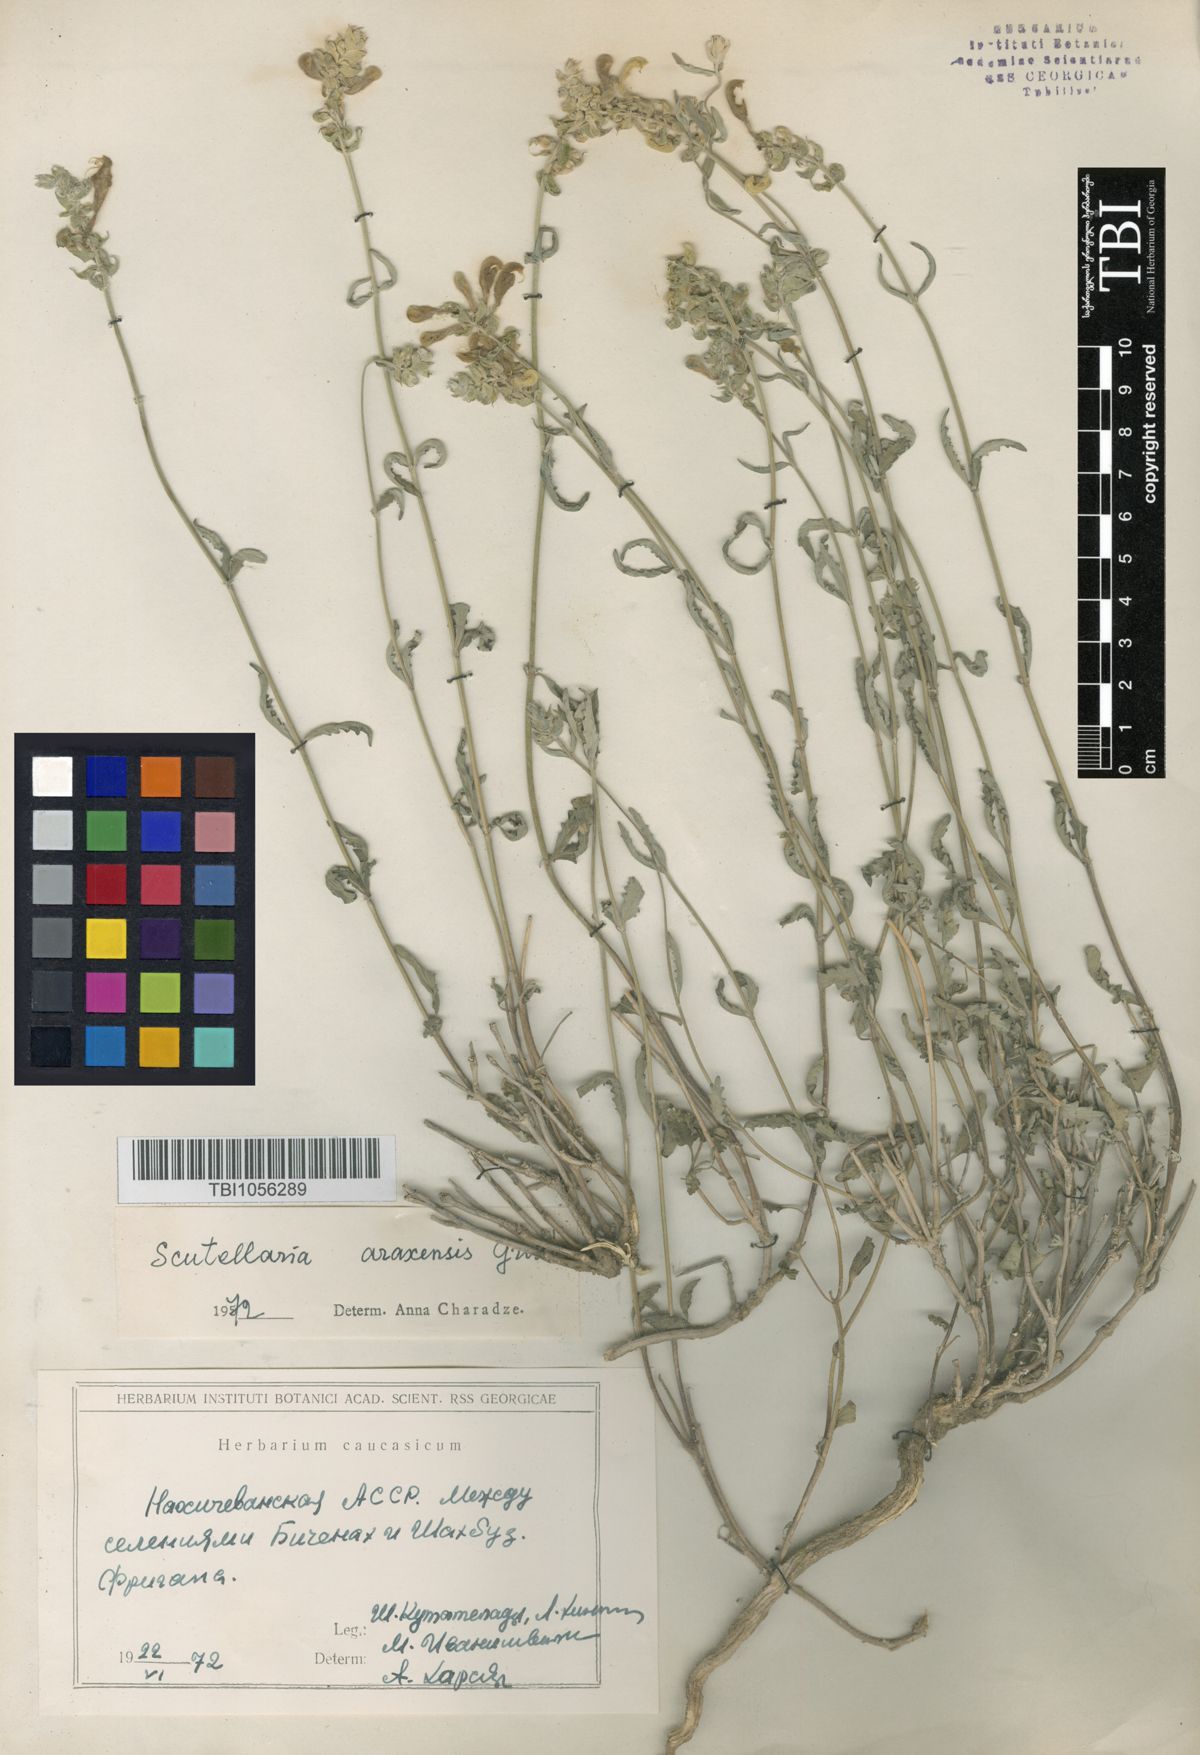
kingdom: Plantae
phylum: Tracheophyta
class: Magnoliopsida
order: Lamiales
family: Lamiaceae
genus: Scutellaria
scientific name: Scutellaria araxensis
